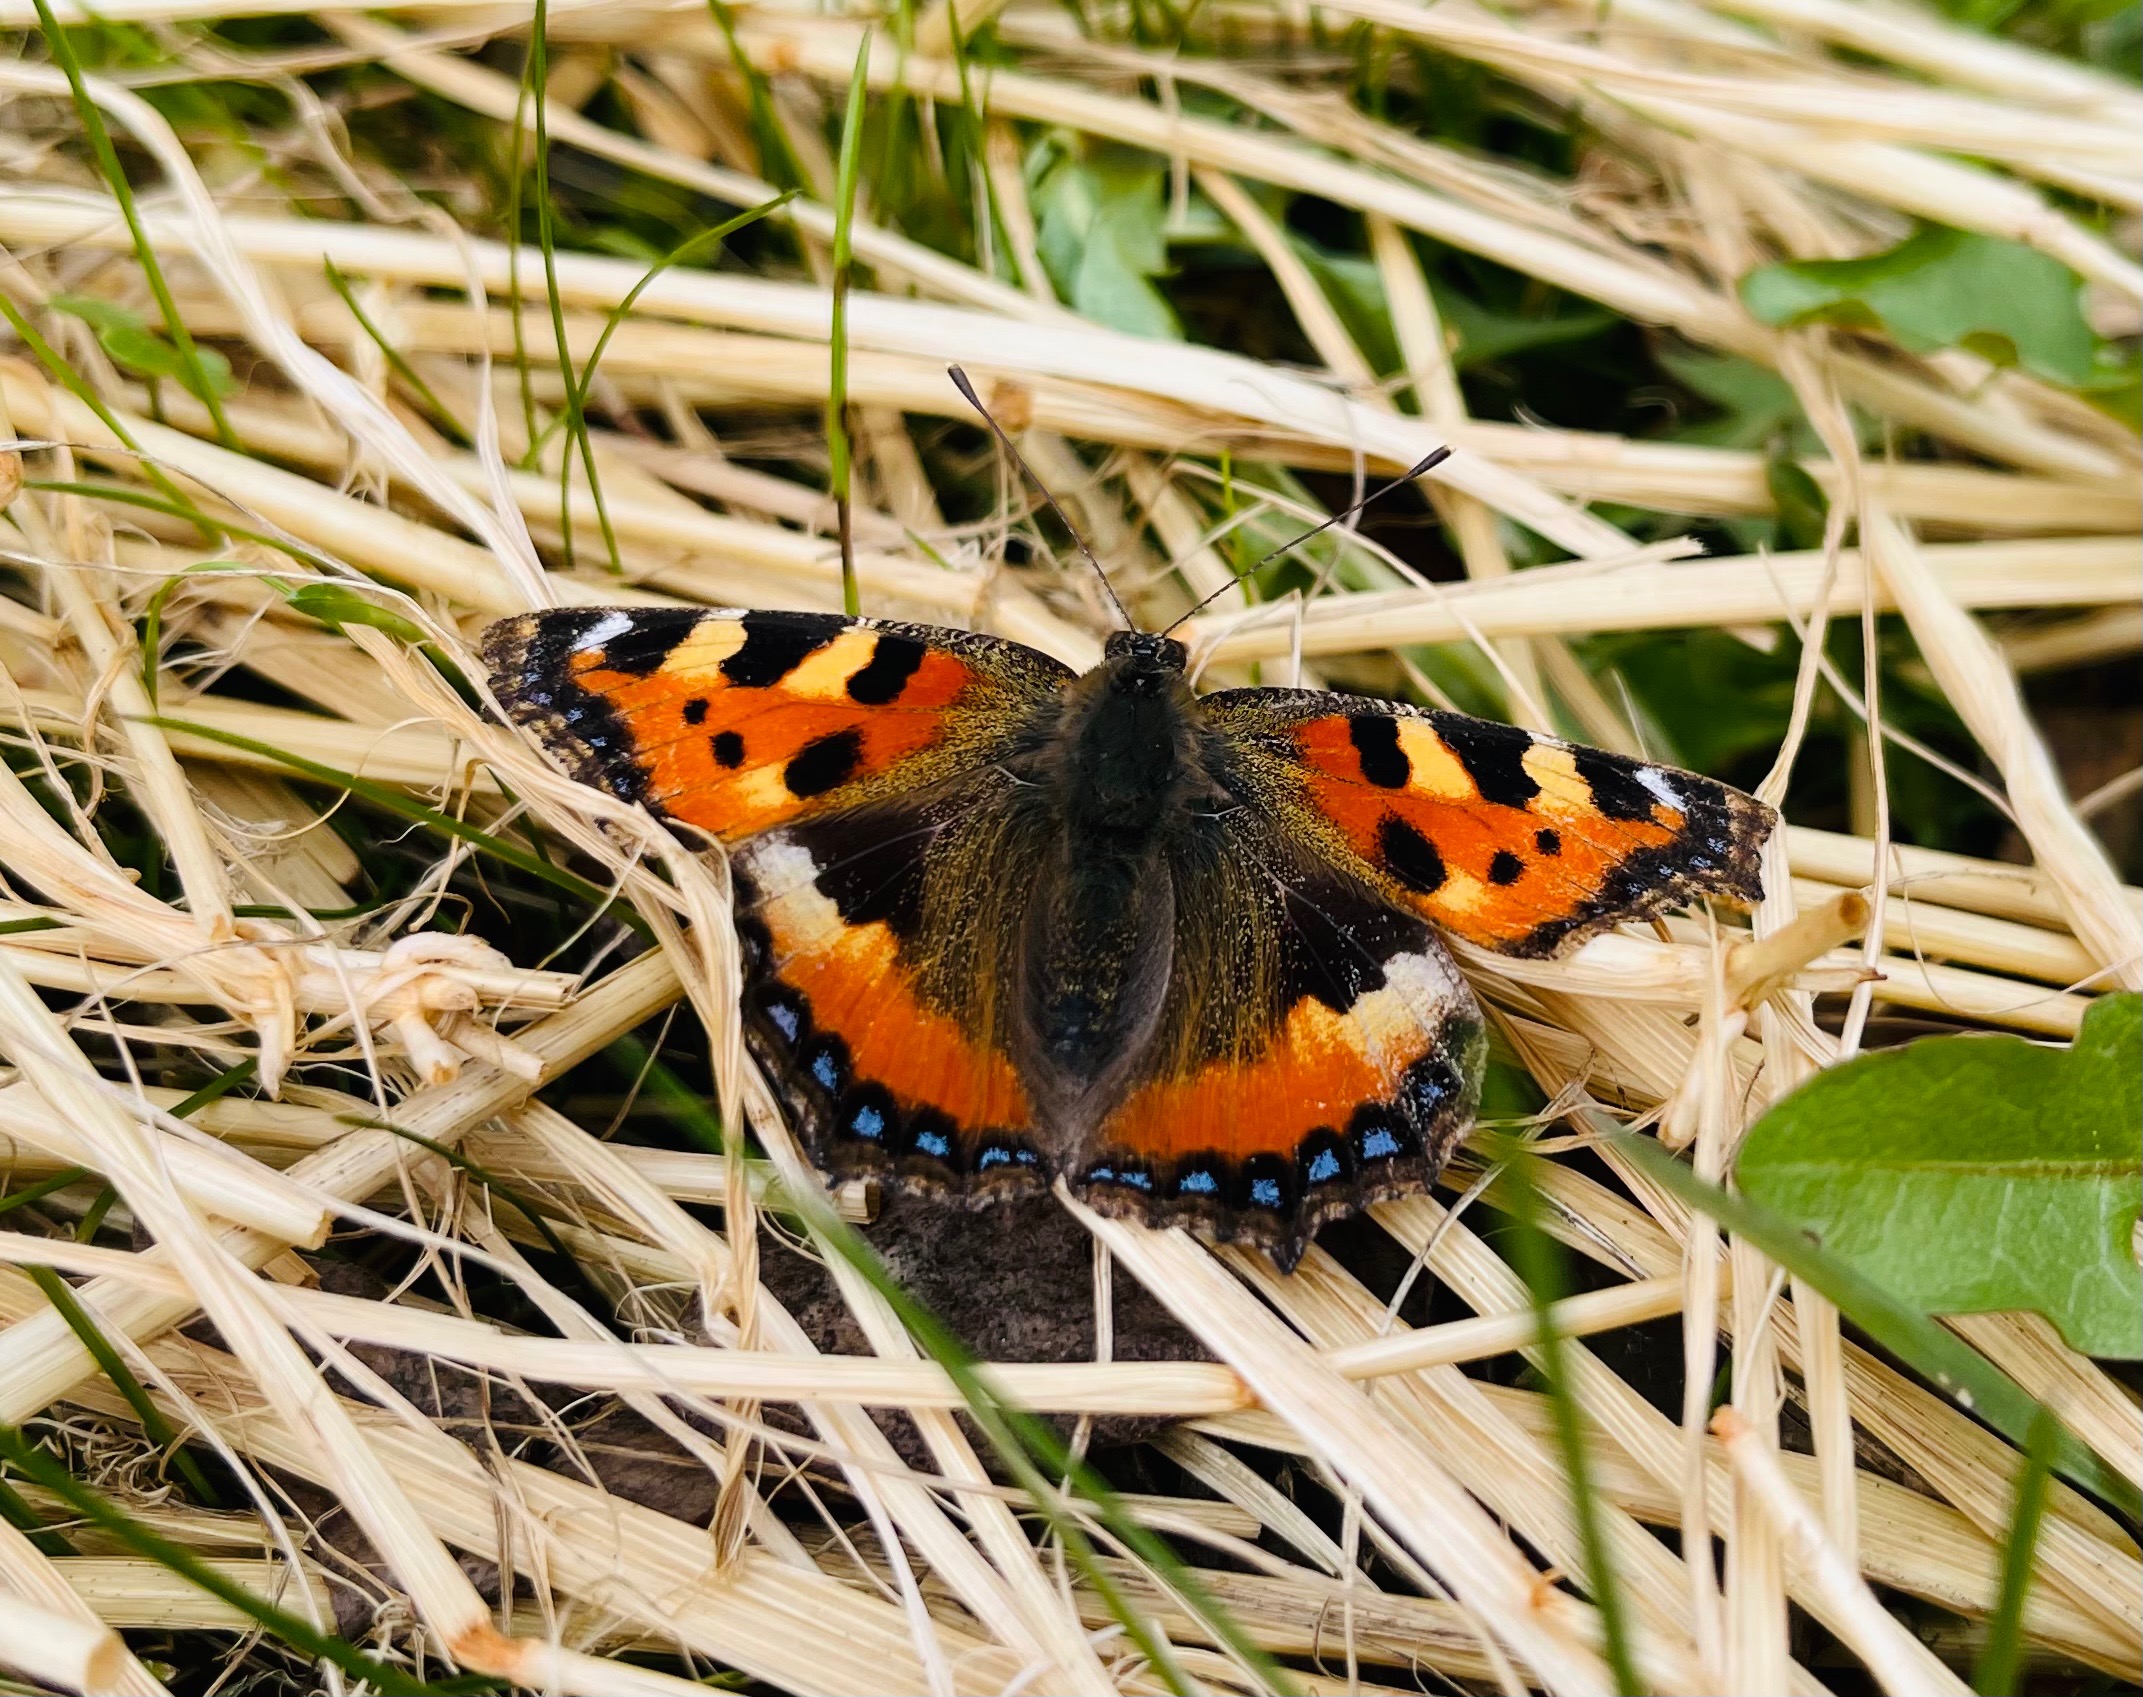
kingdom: Animalia
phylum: Arthropoda
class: Insecta
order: Lepidoptera
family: Nymphalidae
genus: Aglais
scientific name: Aglais urticae
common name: Nældens takvinge
